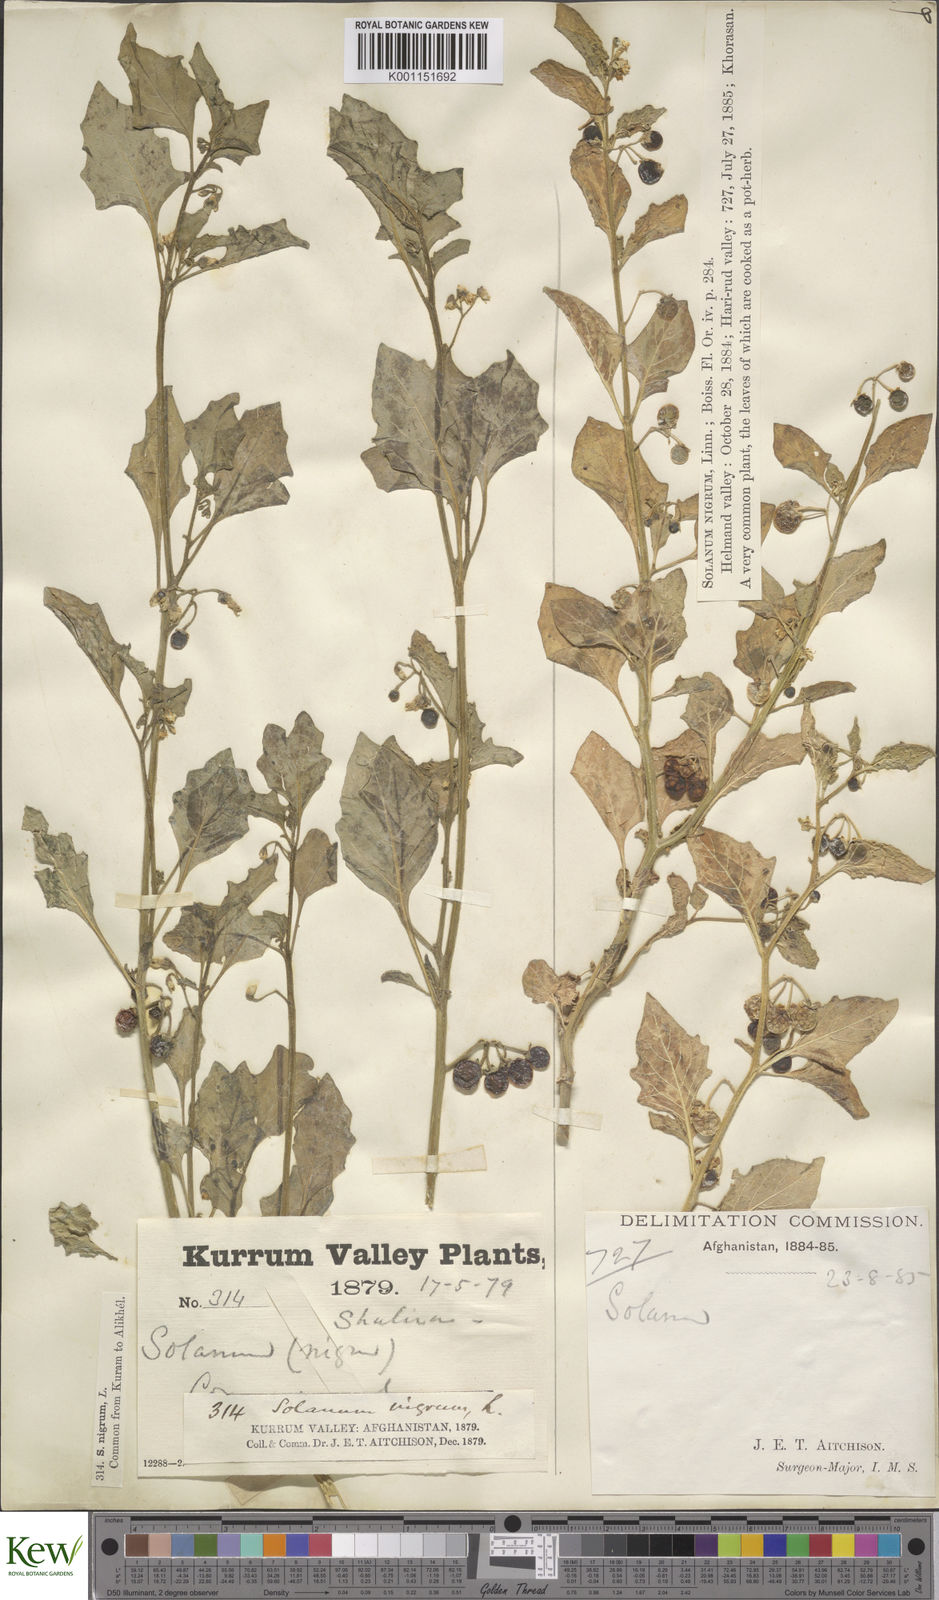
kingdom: Plantae
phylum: Tracheophyta
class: Magnoliopsida
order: Solanales
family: Solanaceae
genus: Solanum
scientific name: Solanum nigrum
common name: Black nightshade
